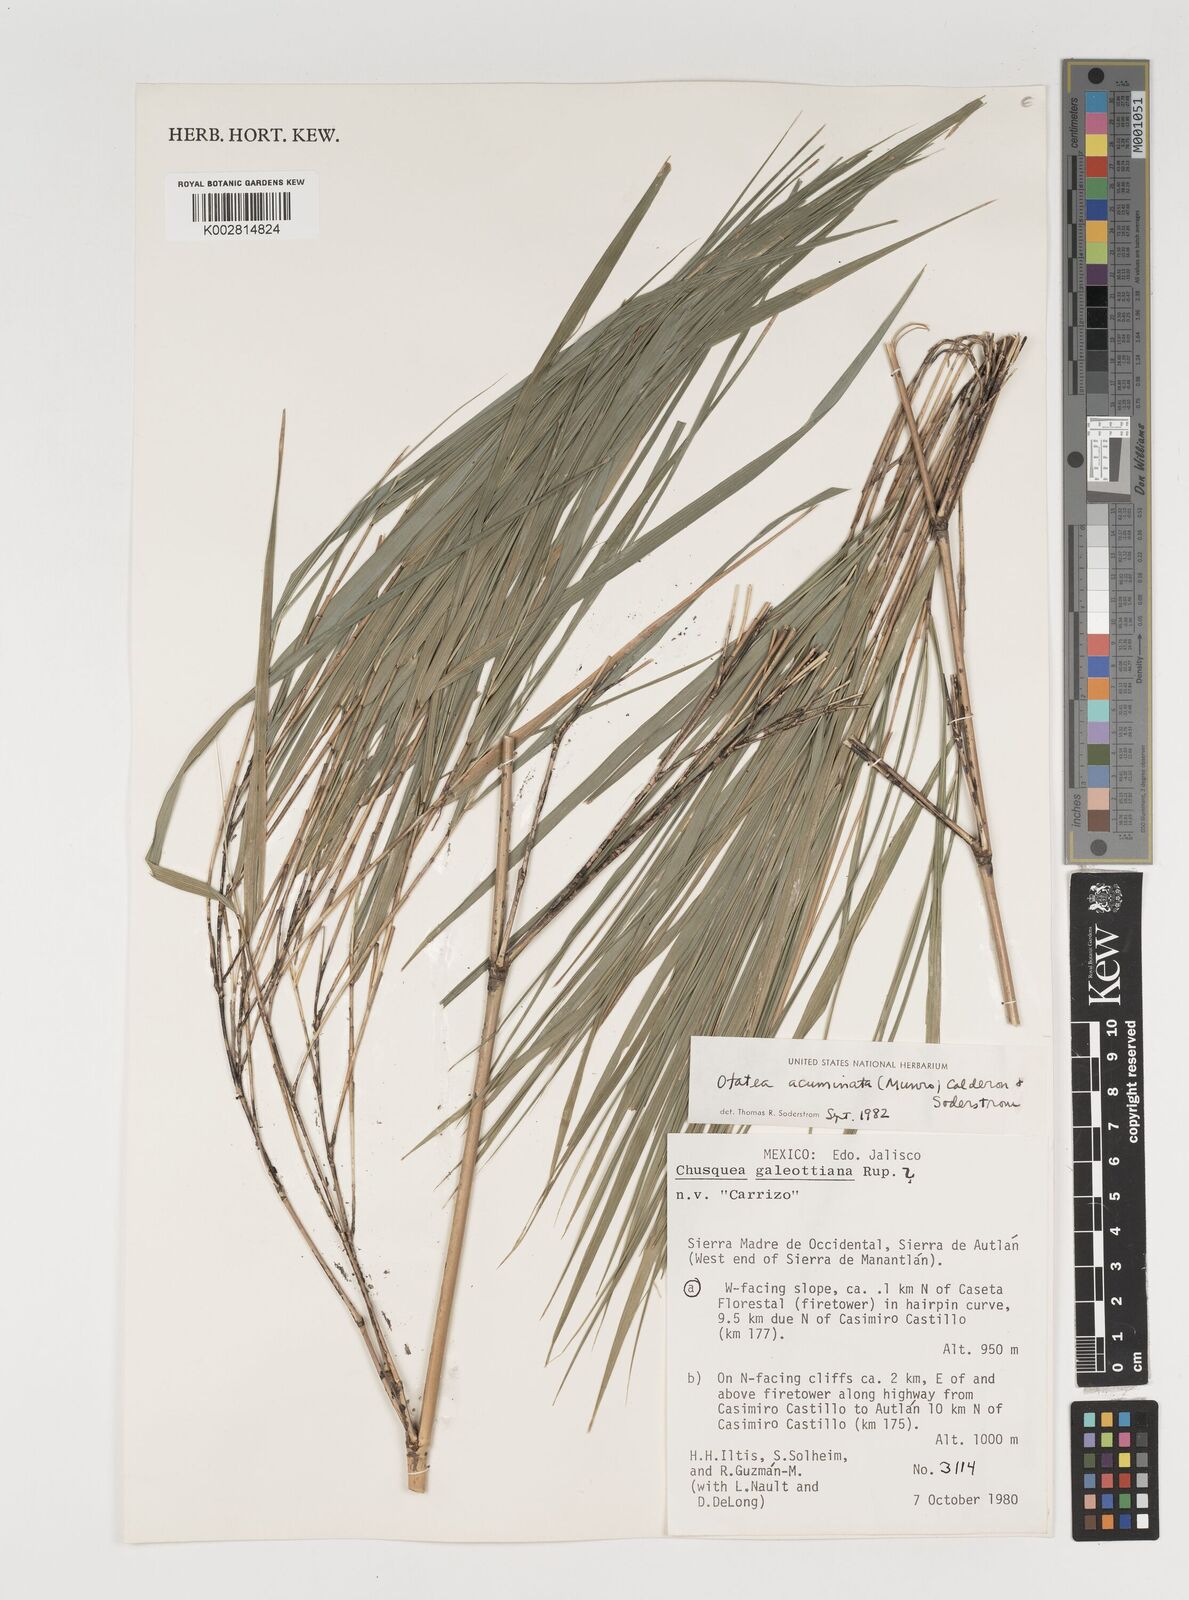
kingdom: Plantae
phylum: Tracheophyta
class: Liliopsida
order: Poales
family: Poaceae
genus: Olmeca
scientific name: Olmeca
